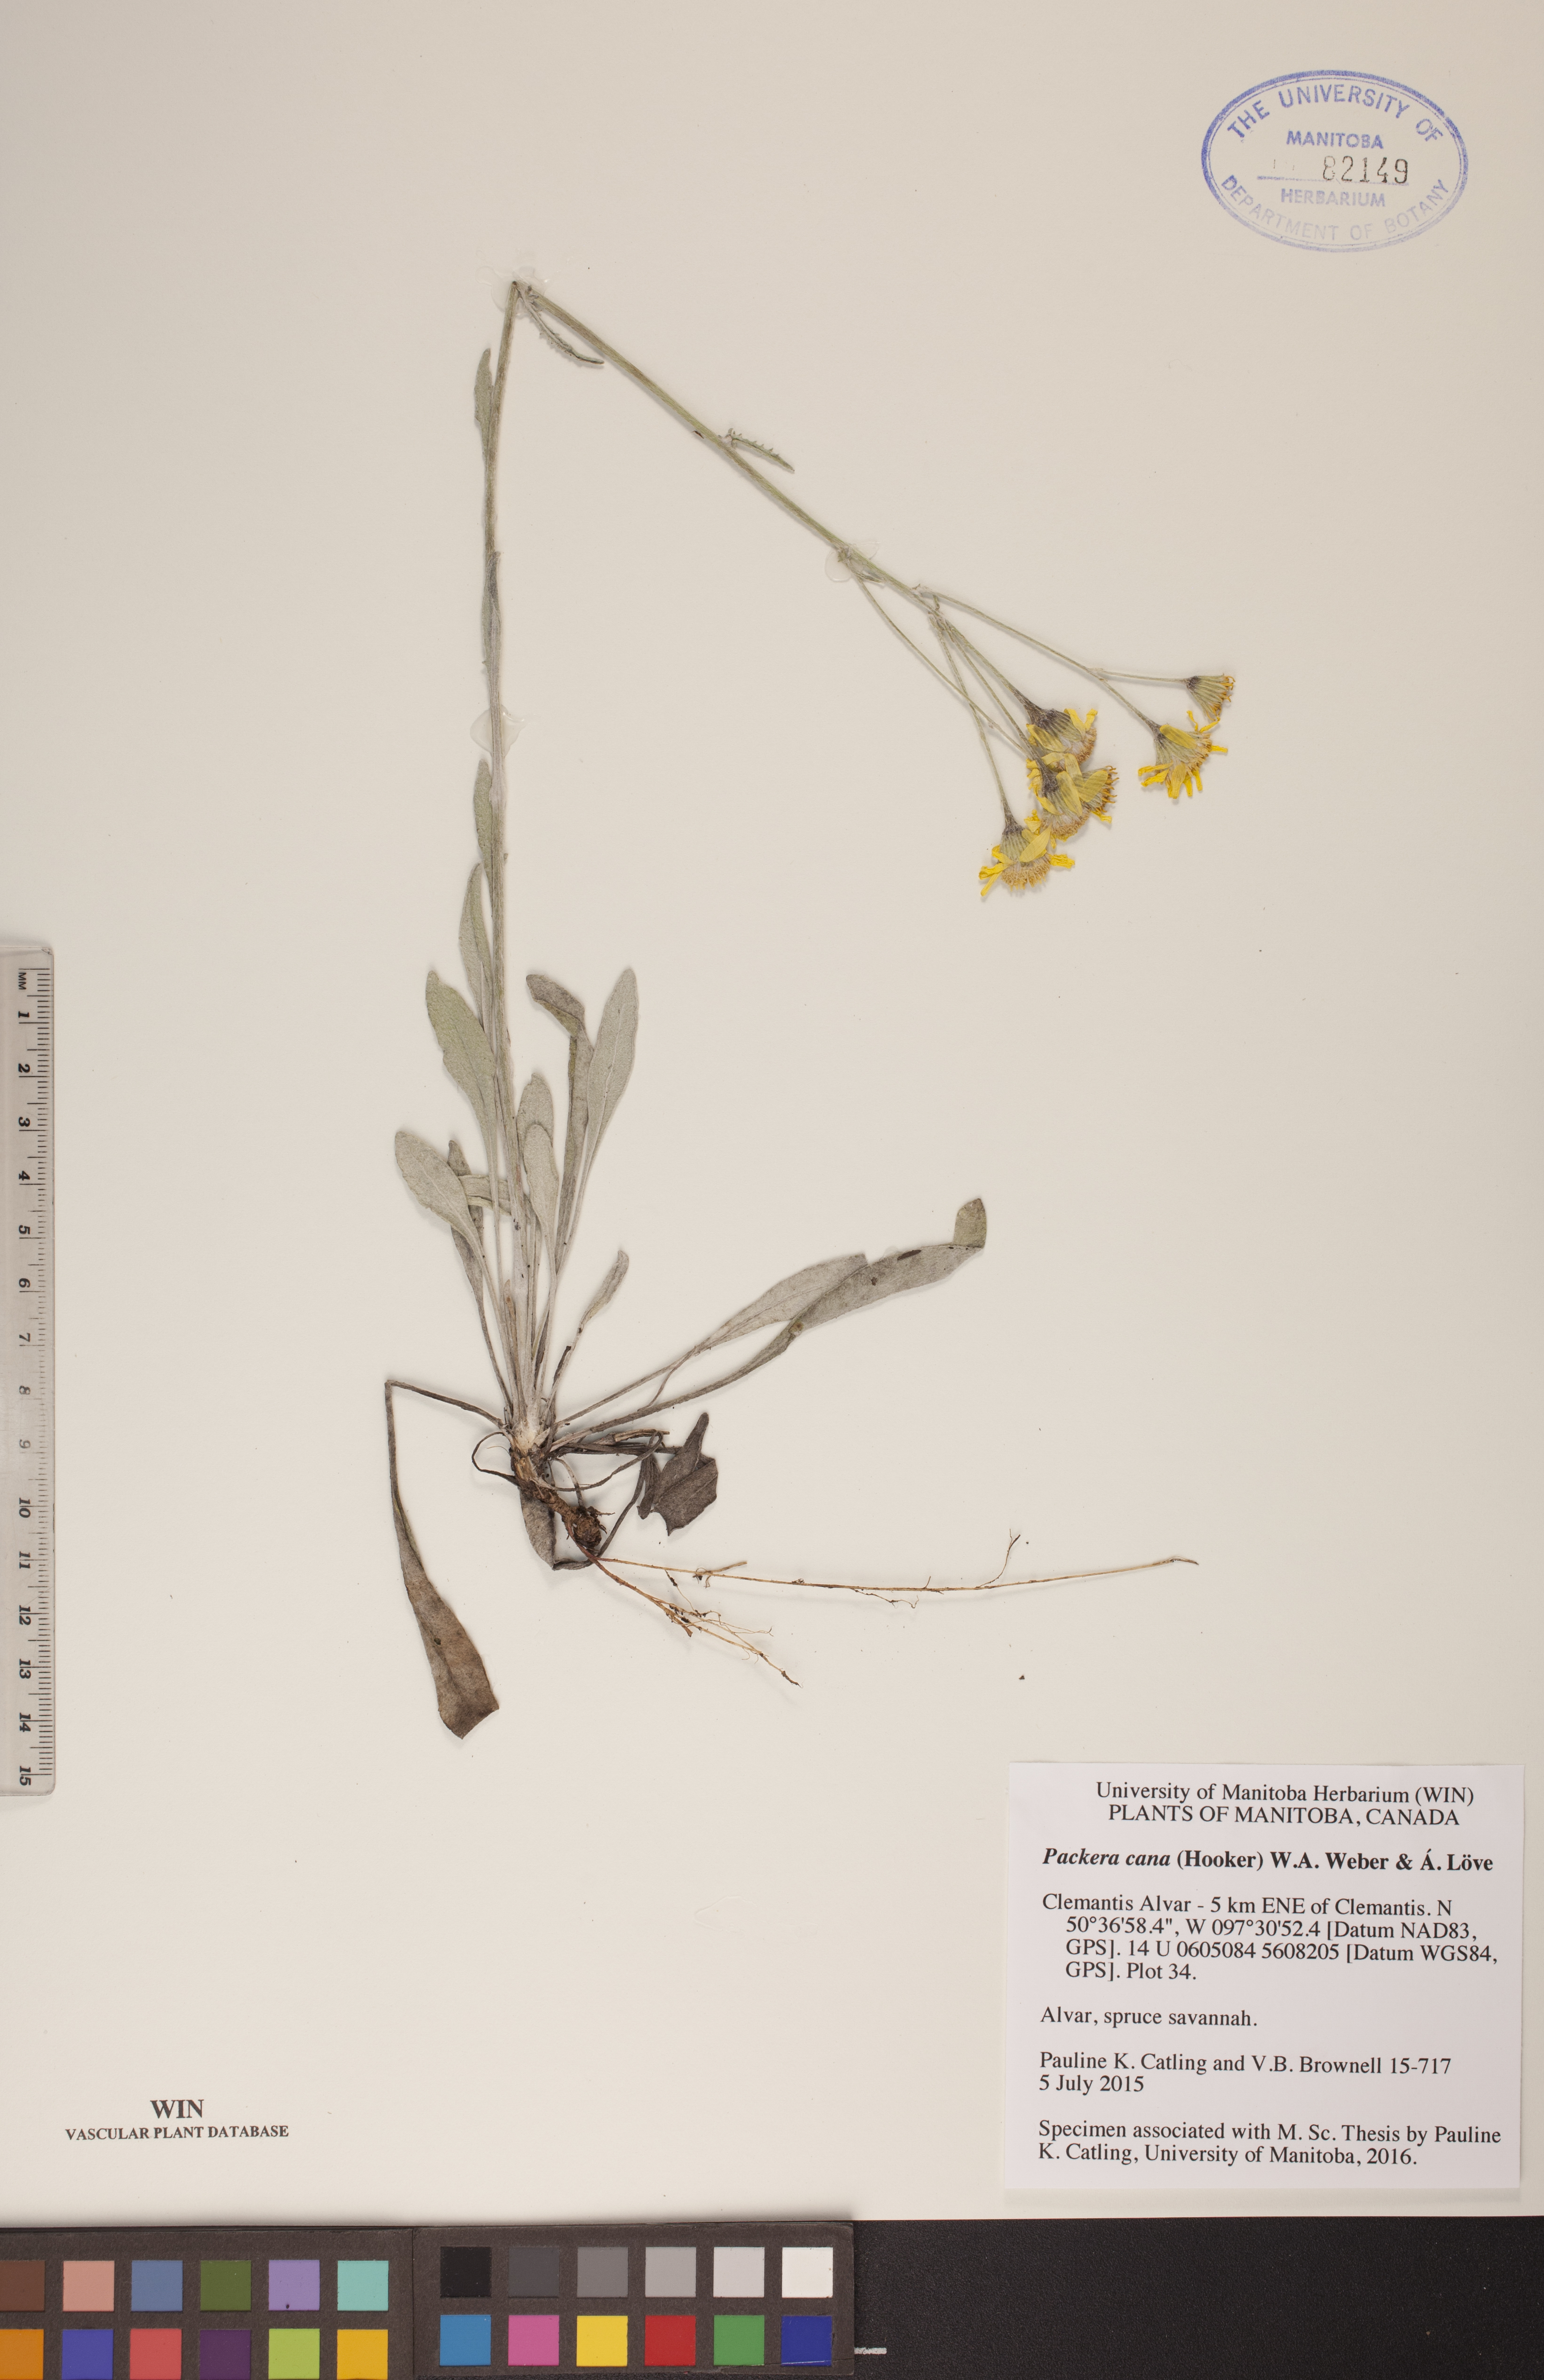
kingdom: Plantae
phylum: Tracheophyta
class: Magnoliopsida
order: Asterales
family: Asteraceae
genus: Packera
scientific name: Packera cana
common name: Woolly groundsel
